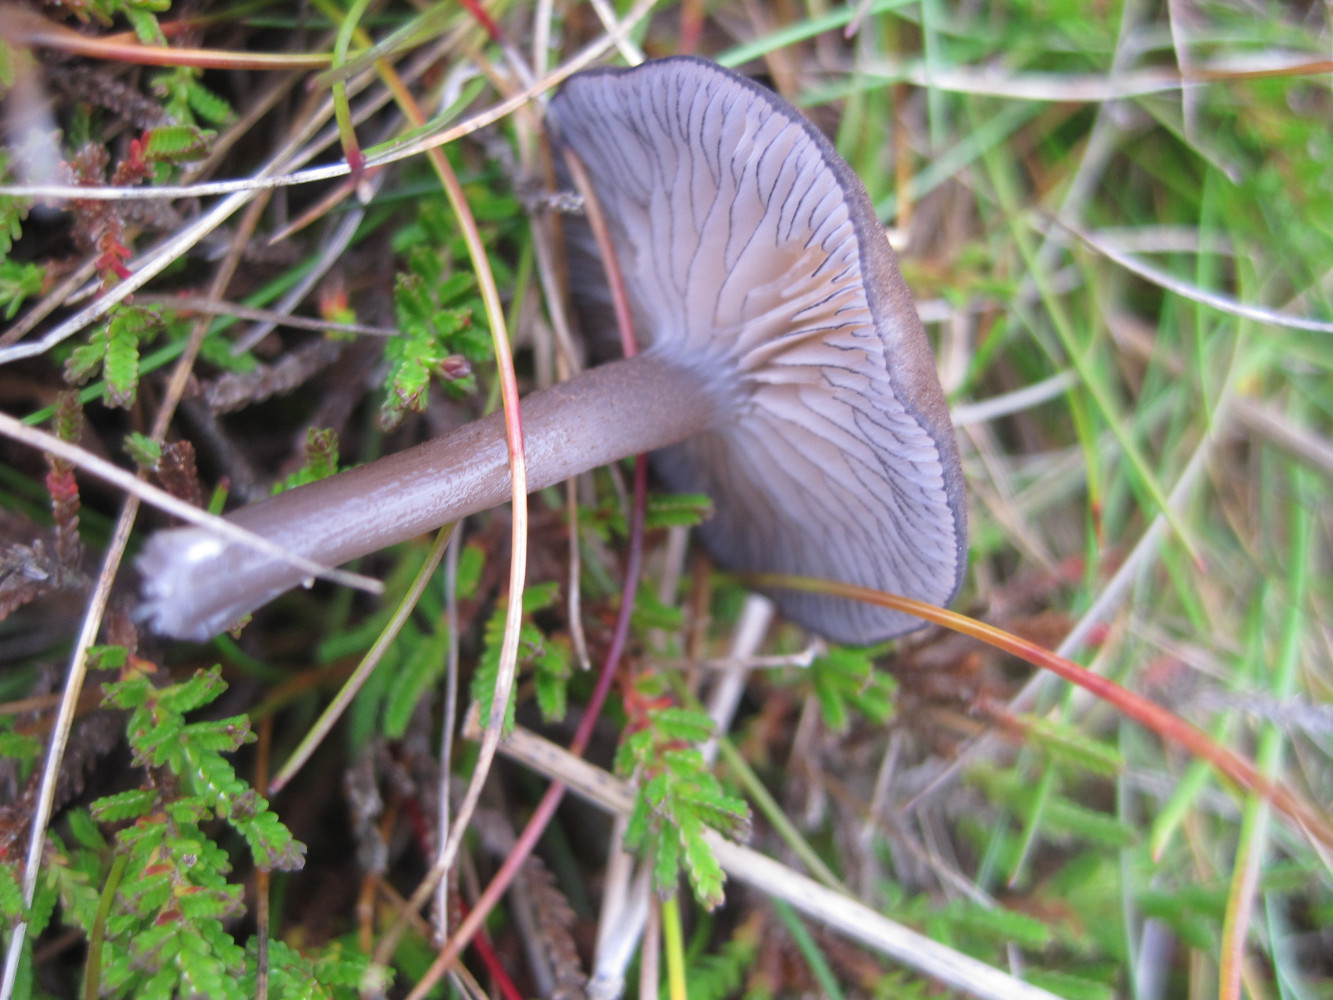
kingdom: Fungi
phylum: Basidiomycota
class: Agaricomycetes
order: Agaricales
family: Entolomataceae
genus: Entoloma
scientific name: Entoloma
